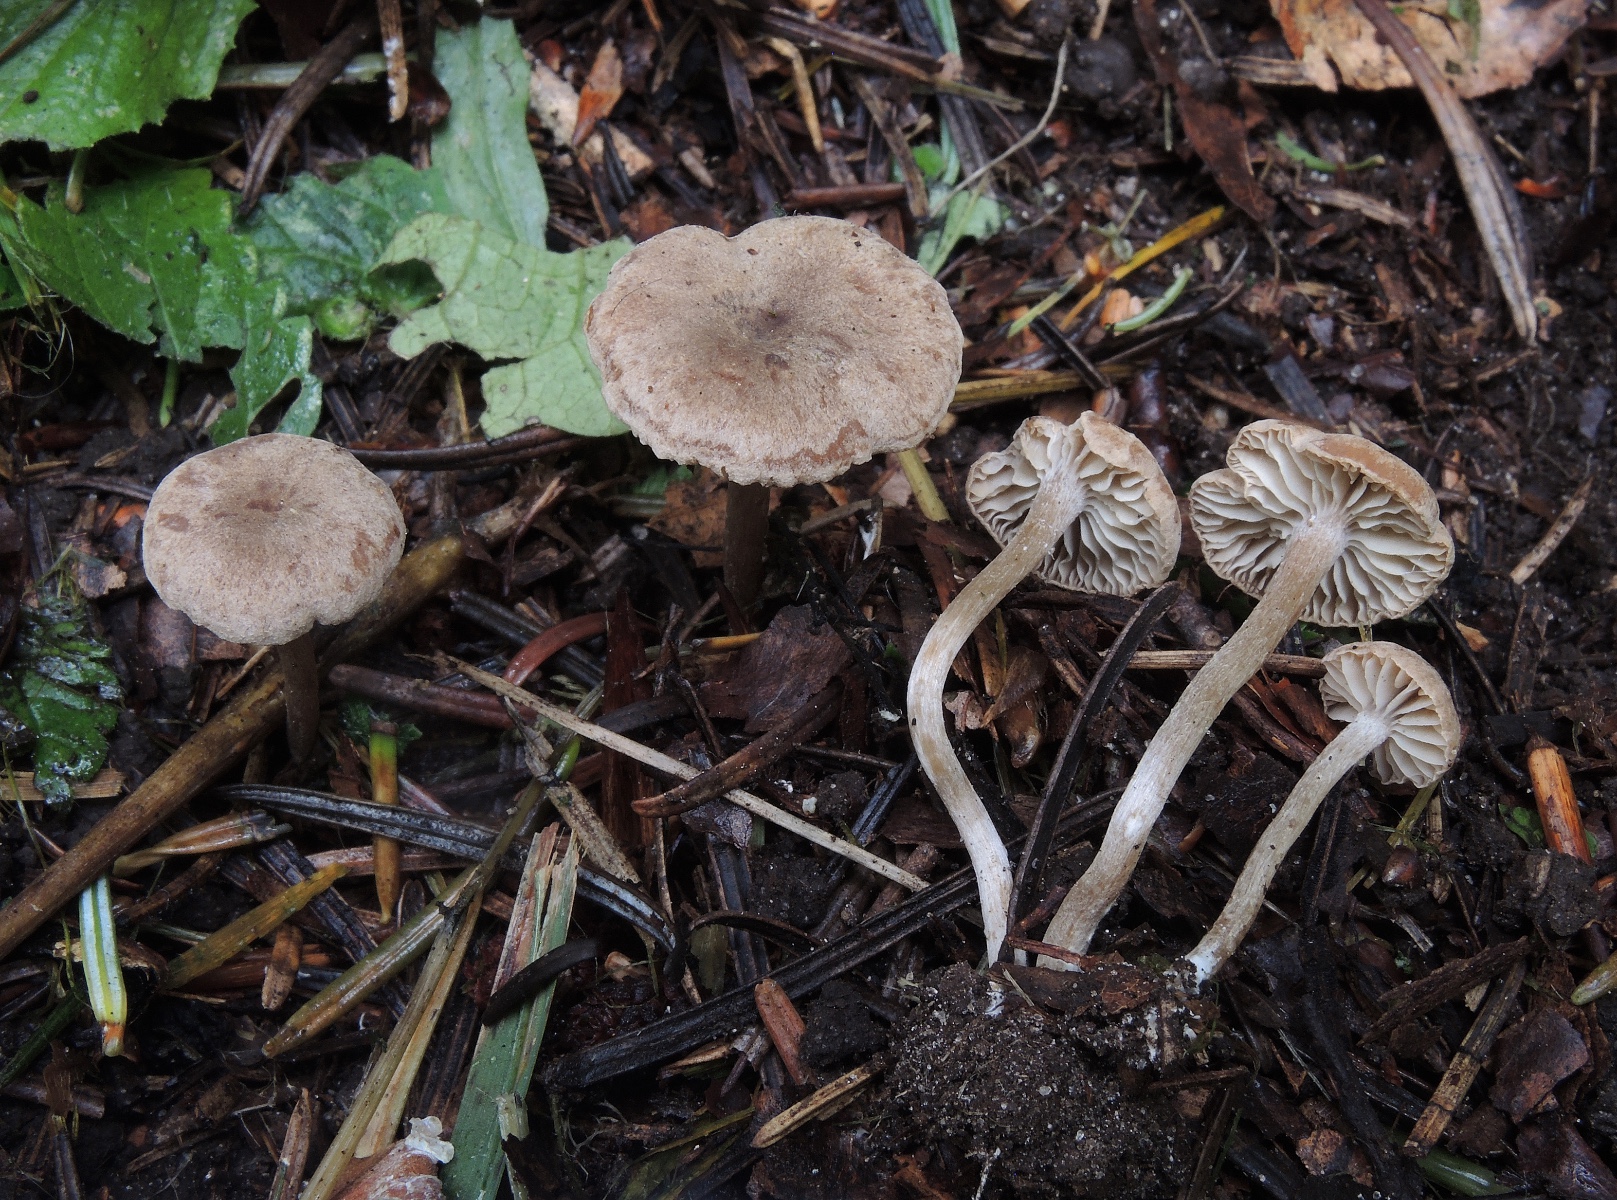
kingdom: Fungi
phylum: Basidiomycota
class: Agaricomycetes
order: Agaricales
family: Callistosporiaceae
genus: Pseudolaccaria
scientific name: Pseudolaccaria pachyphylla
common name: hvælvet tykblad
